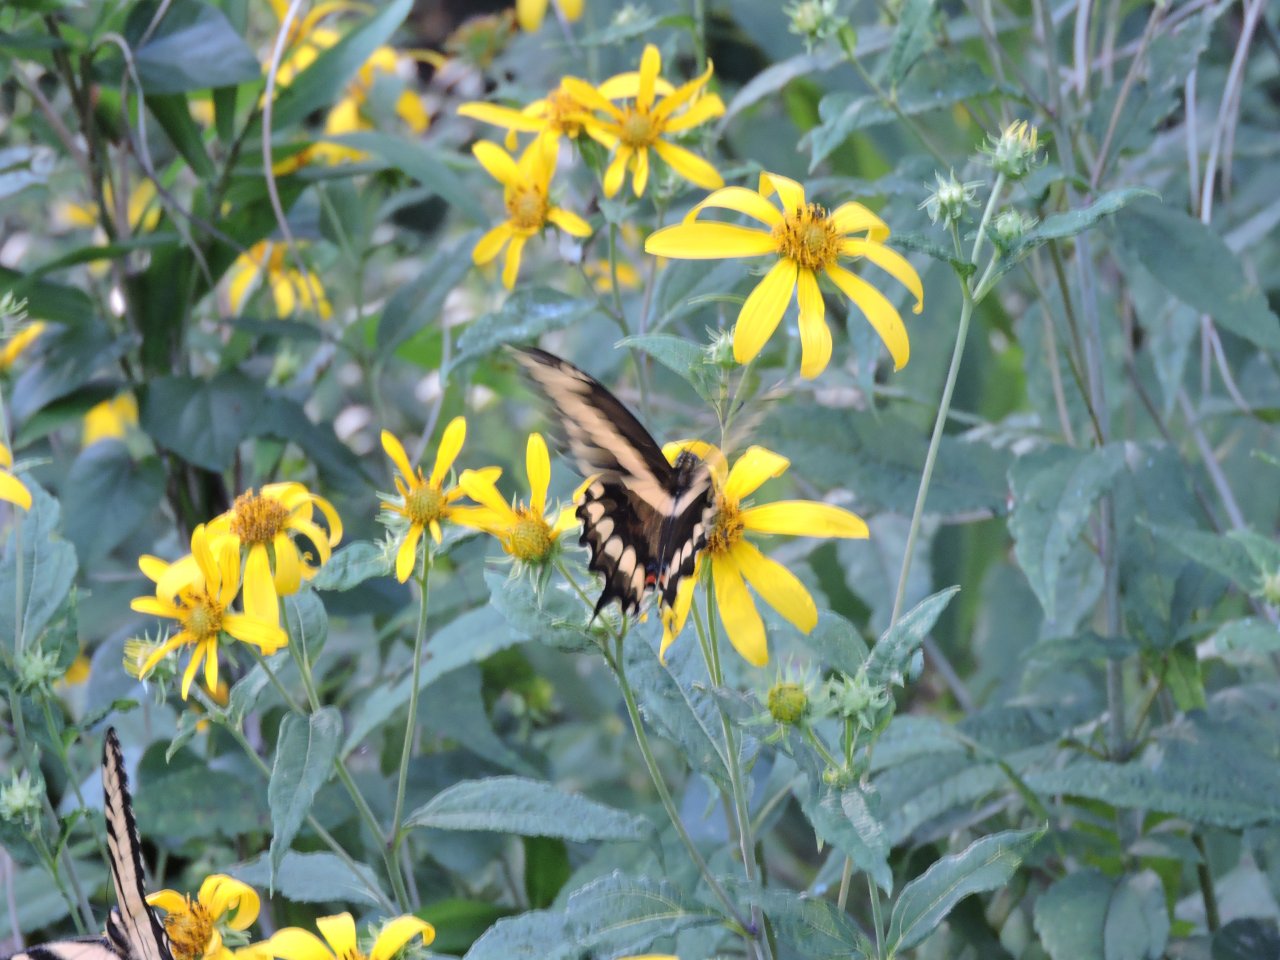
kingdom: Animalia
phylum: Arthropoda
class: Insecta
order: Lepidoptera
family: Papilionidae
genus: Papilio
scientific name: Papilio cresphontes
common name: Eastern Giant Swallowtail
